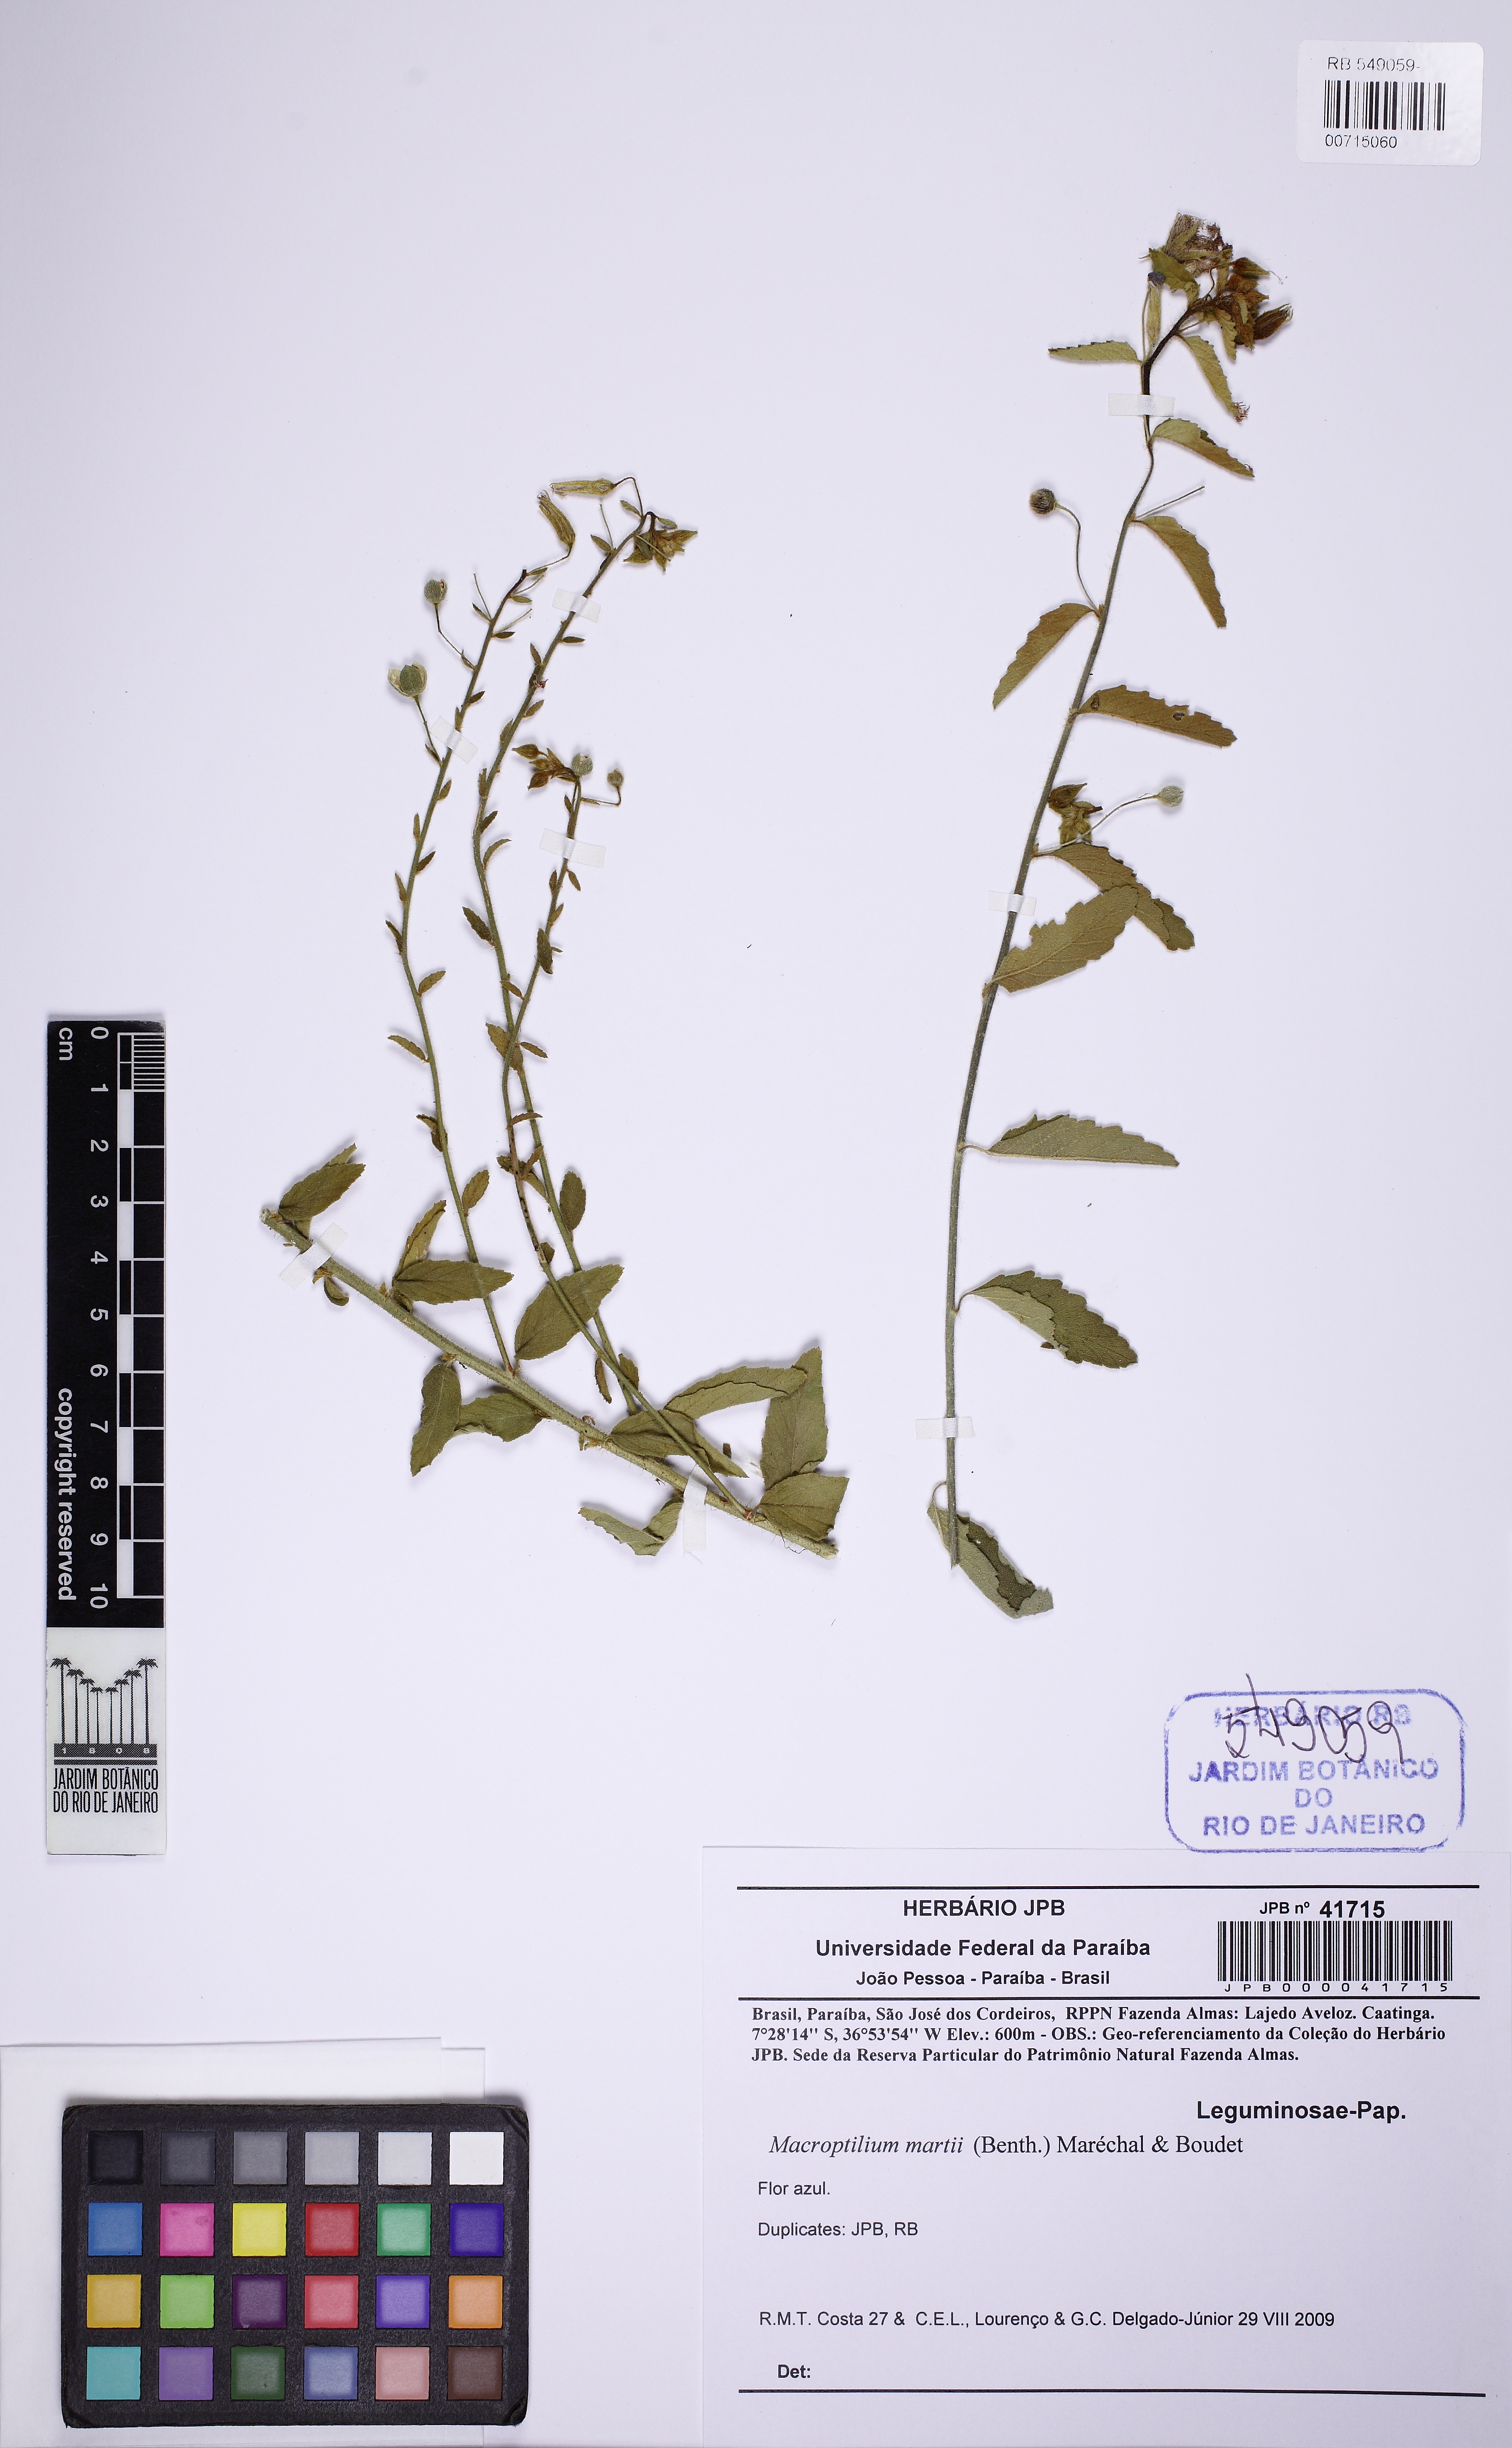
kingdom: Plantae
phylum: Tracheophyta
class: Magnoliopsida
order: Malpighiales
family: Turneraceae
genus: Piriqueta
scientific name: Piriqueta
